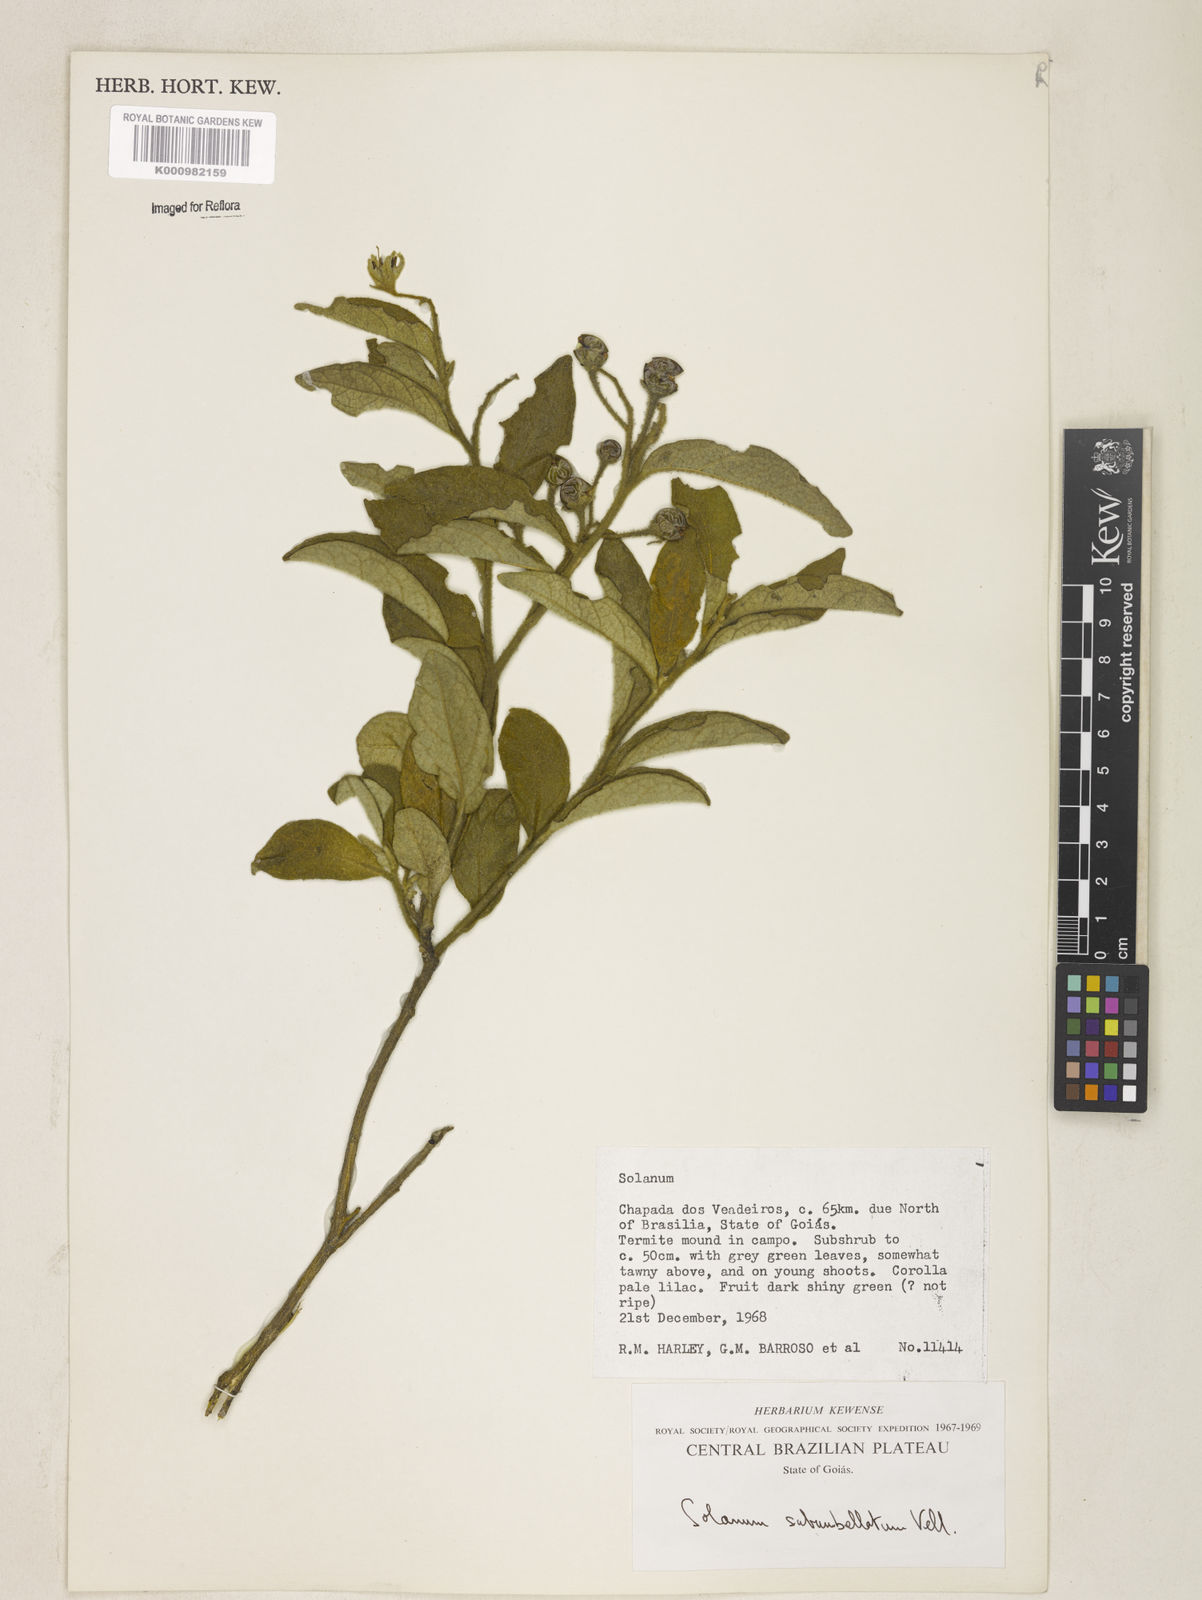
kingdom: Plantae
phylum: Tracheophyta
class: Magnoliopsida
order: Solanales
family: Solanaceae
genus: Solanum
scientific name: Solanum subumbellatum
